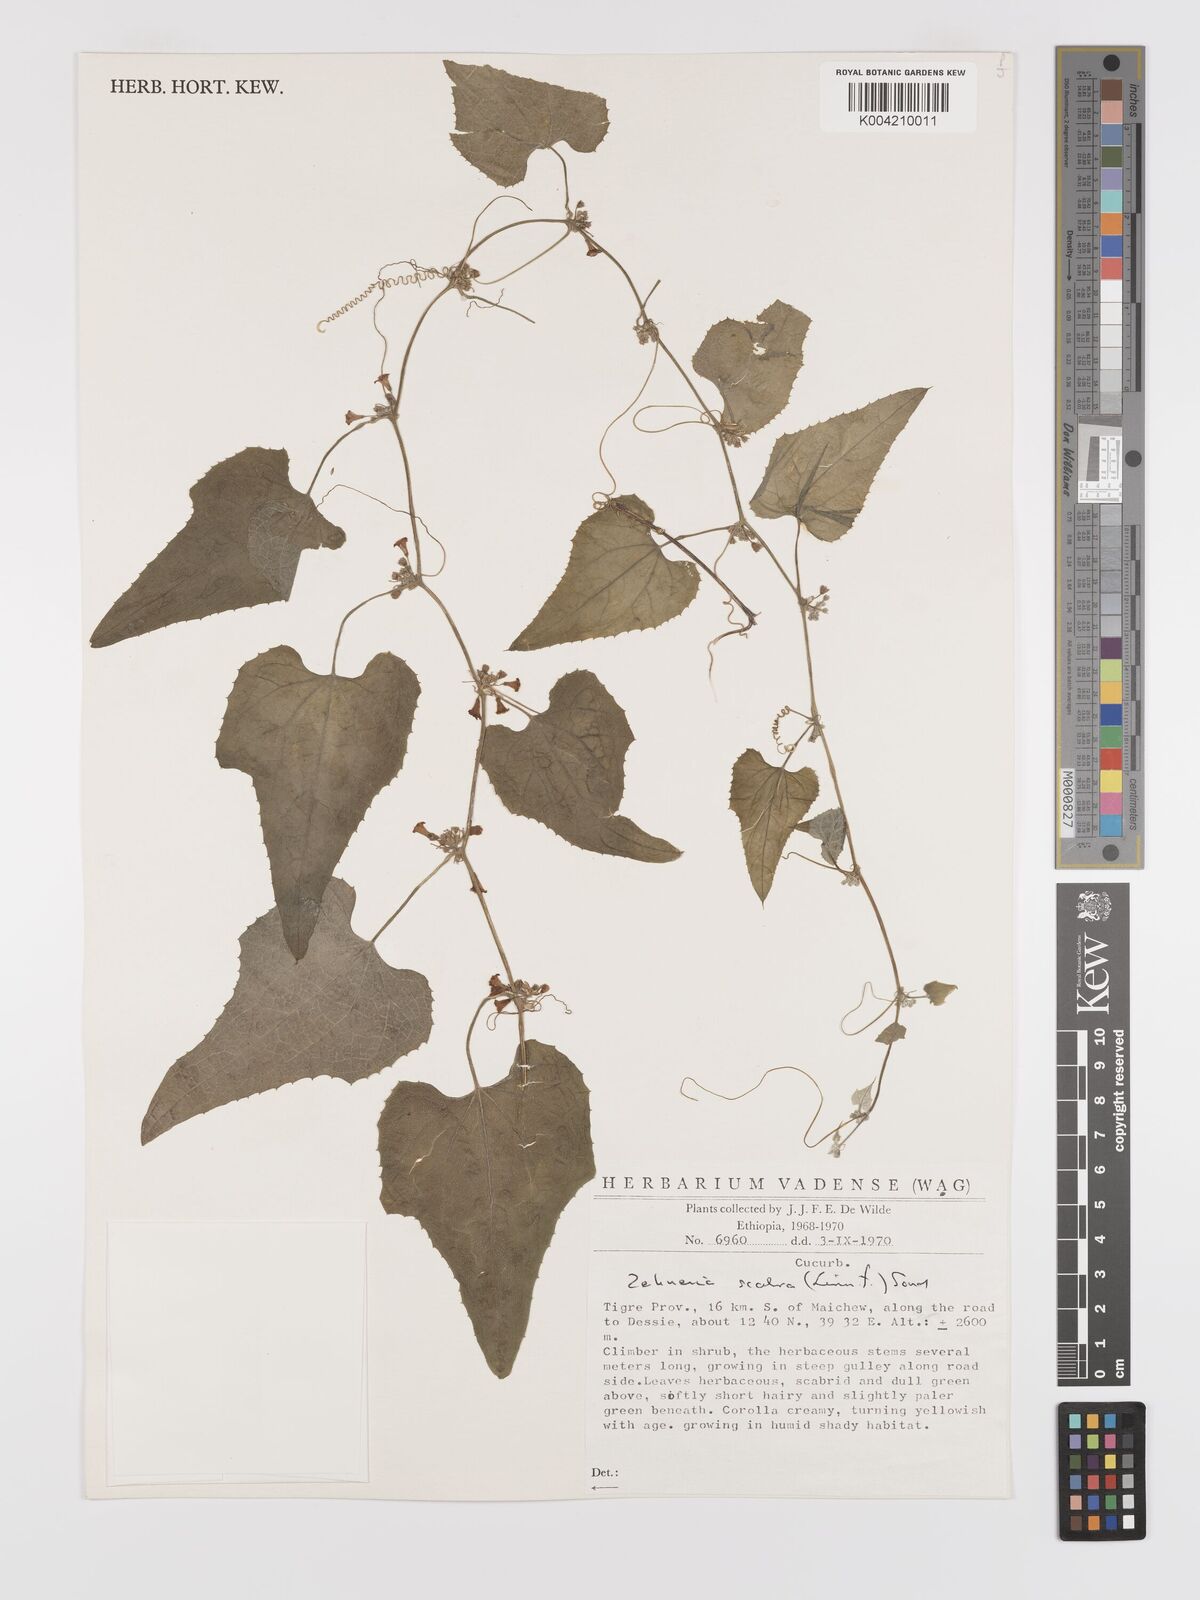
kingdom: Plantae
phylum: Tracheophyta
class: Magnoliopsida
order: Cucurbitales
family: Cucurbitaceae
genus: Zehneria
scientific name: Zehneria scabra
